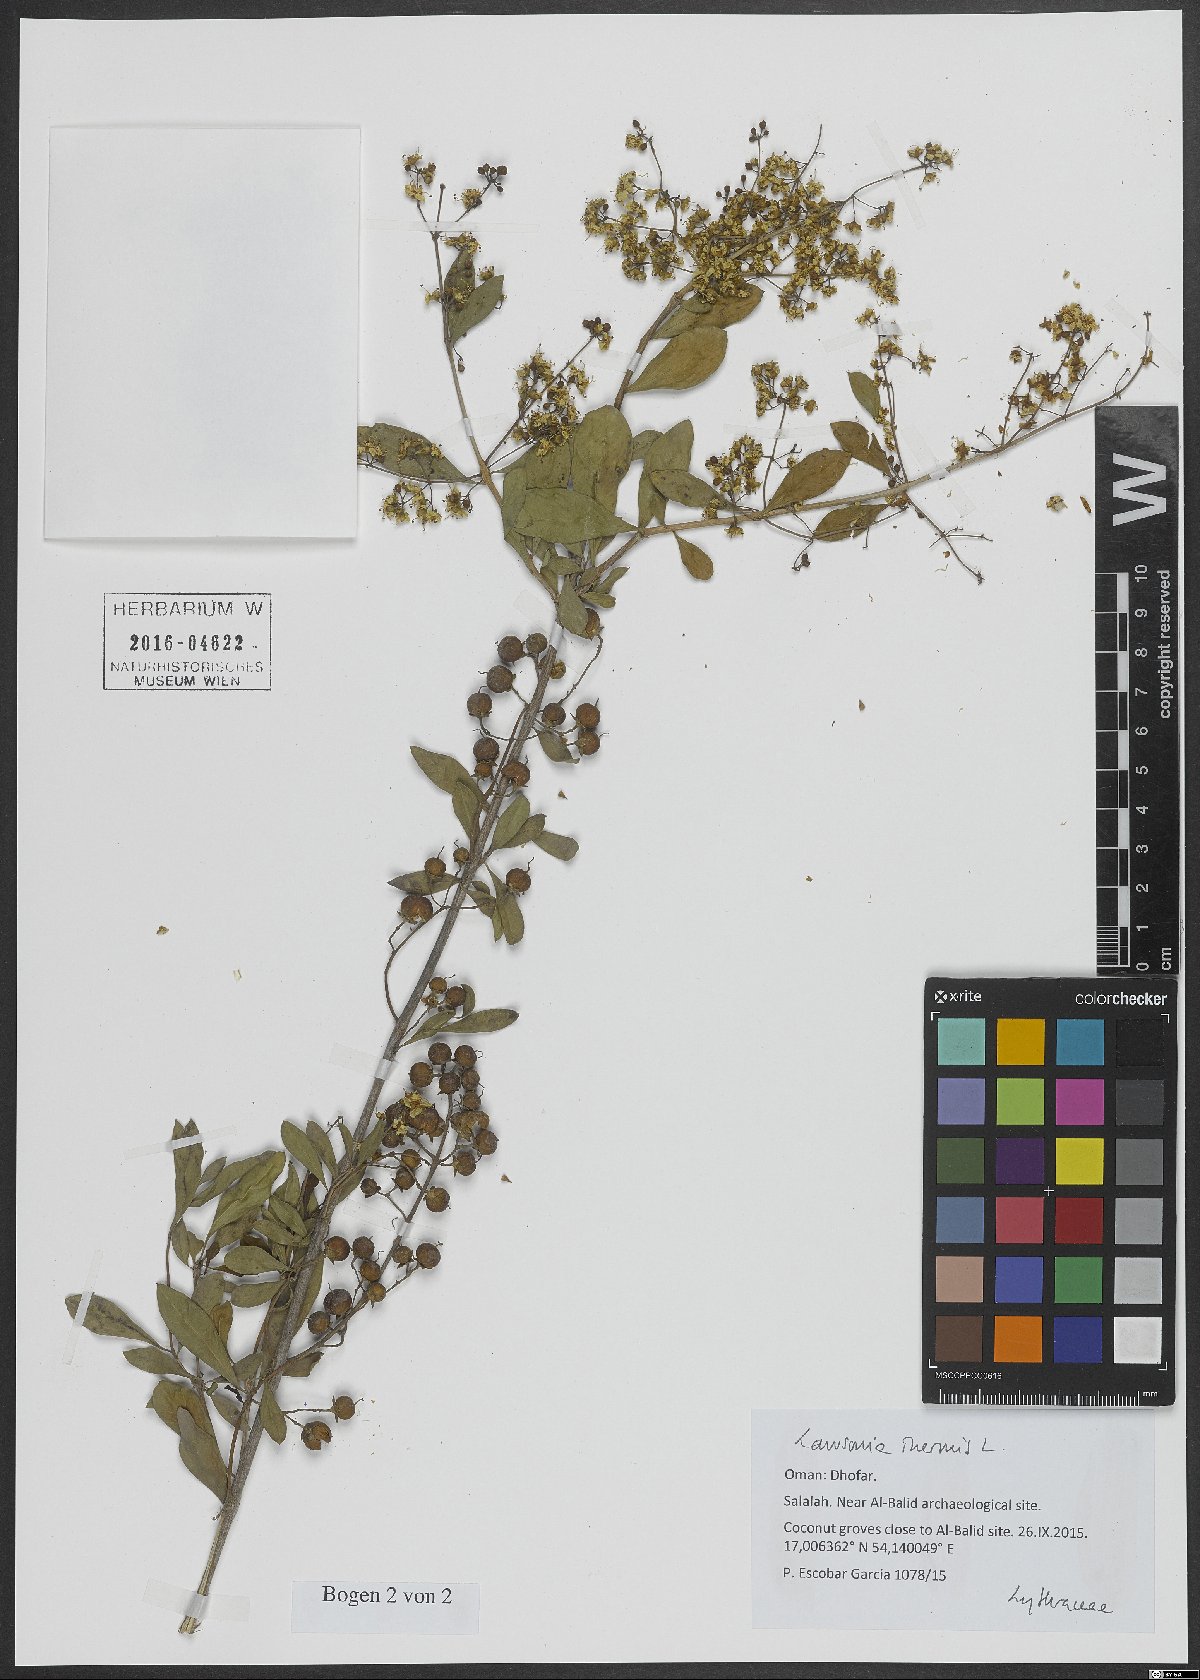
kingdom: Plantae
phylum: Tracheophyta
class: Magnoliopsida
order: Myrtales
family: Lythraceae
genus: Lawsonia
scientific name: Lawsonia inermis
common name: Henna
